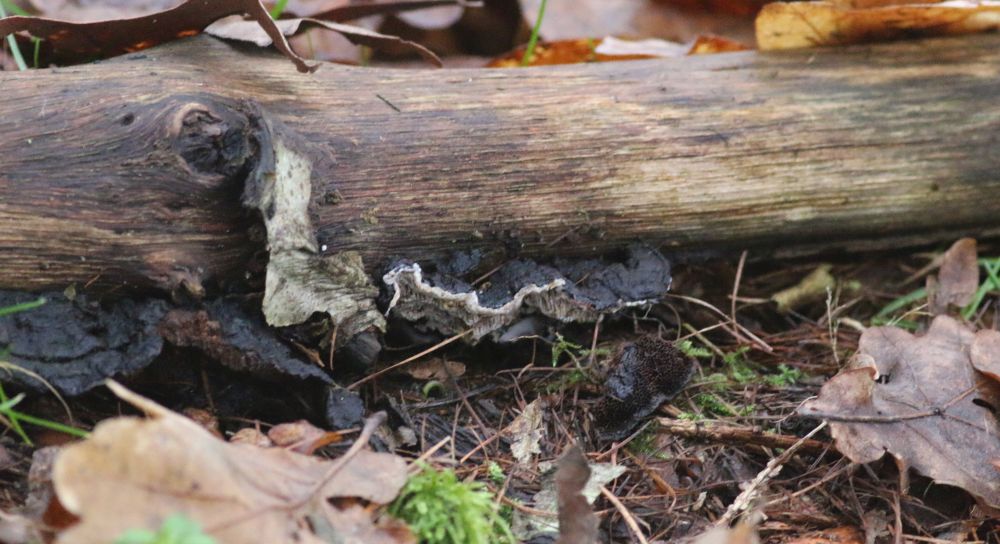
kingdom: Fungi
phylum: Basidiomycota
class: Agaricomycetes
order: Polyporales
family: Polyporaceae
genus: Podofomes
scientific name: Podofomes mollis
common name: blød begporesvamp
